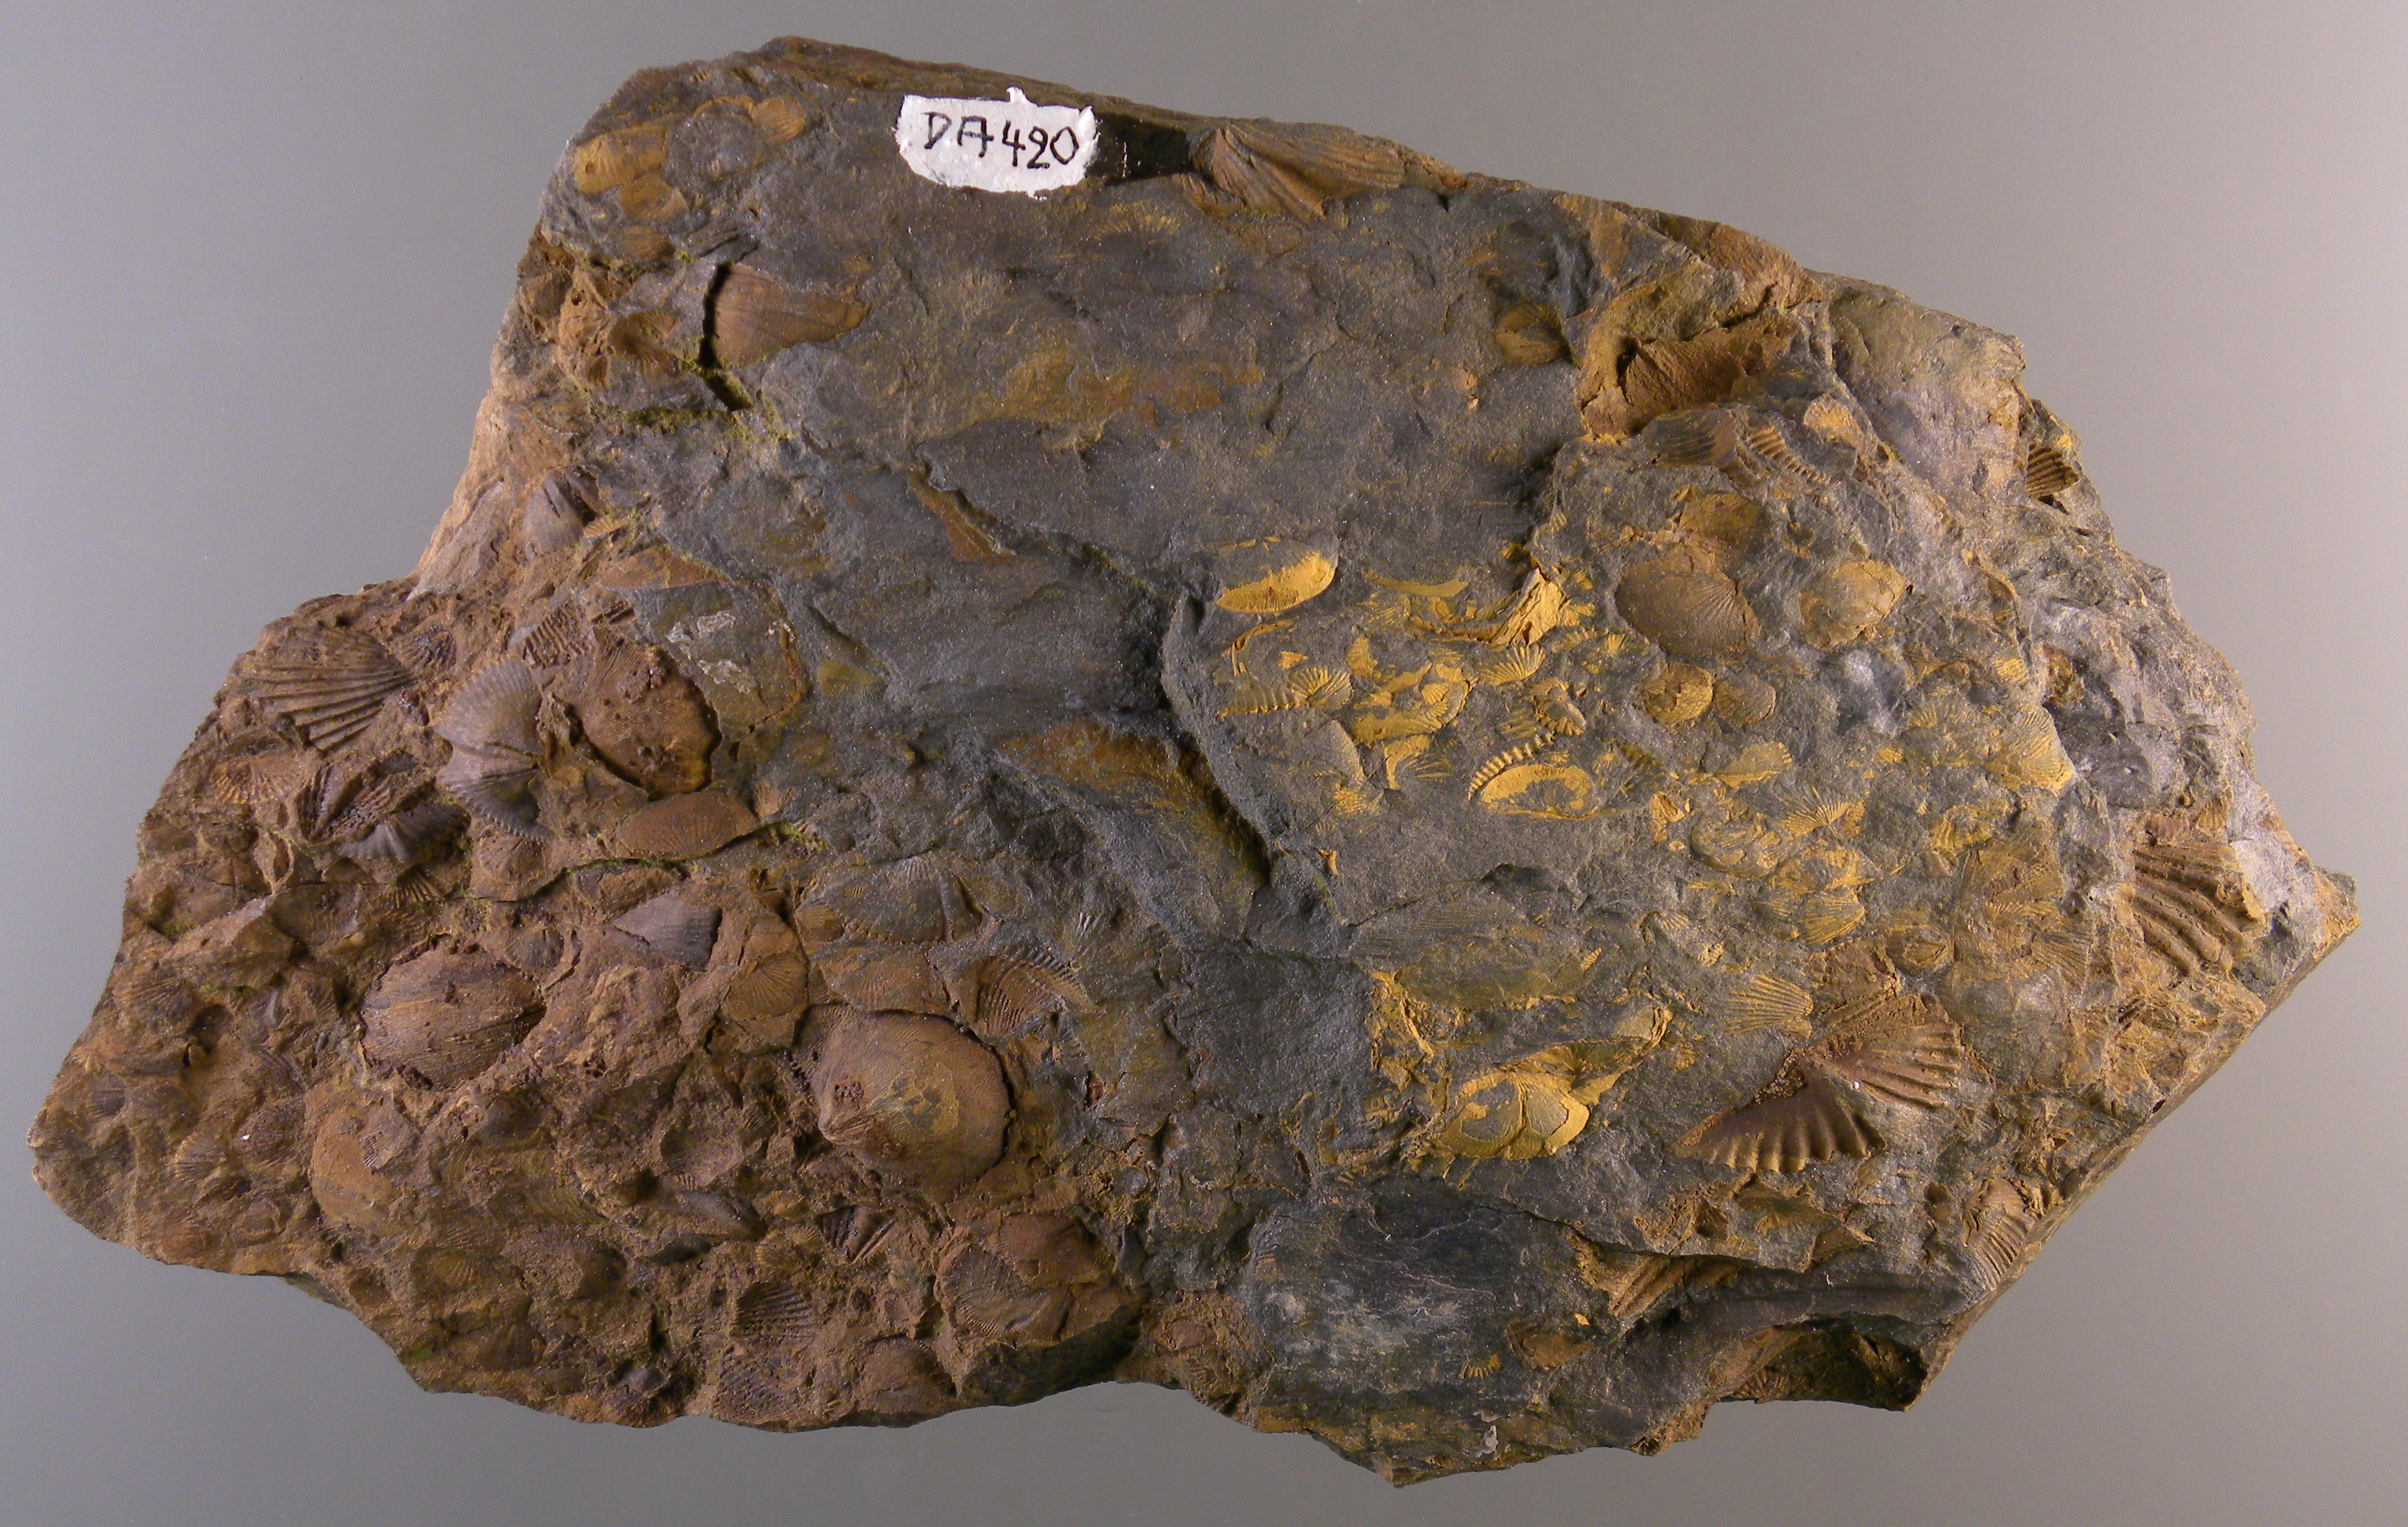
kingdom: Animalia
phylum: Brachiopoda
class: Rhynchonellata
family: Spinocyrtiidae
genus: Subcuspidella
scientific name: Subcuspidella
